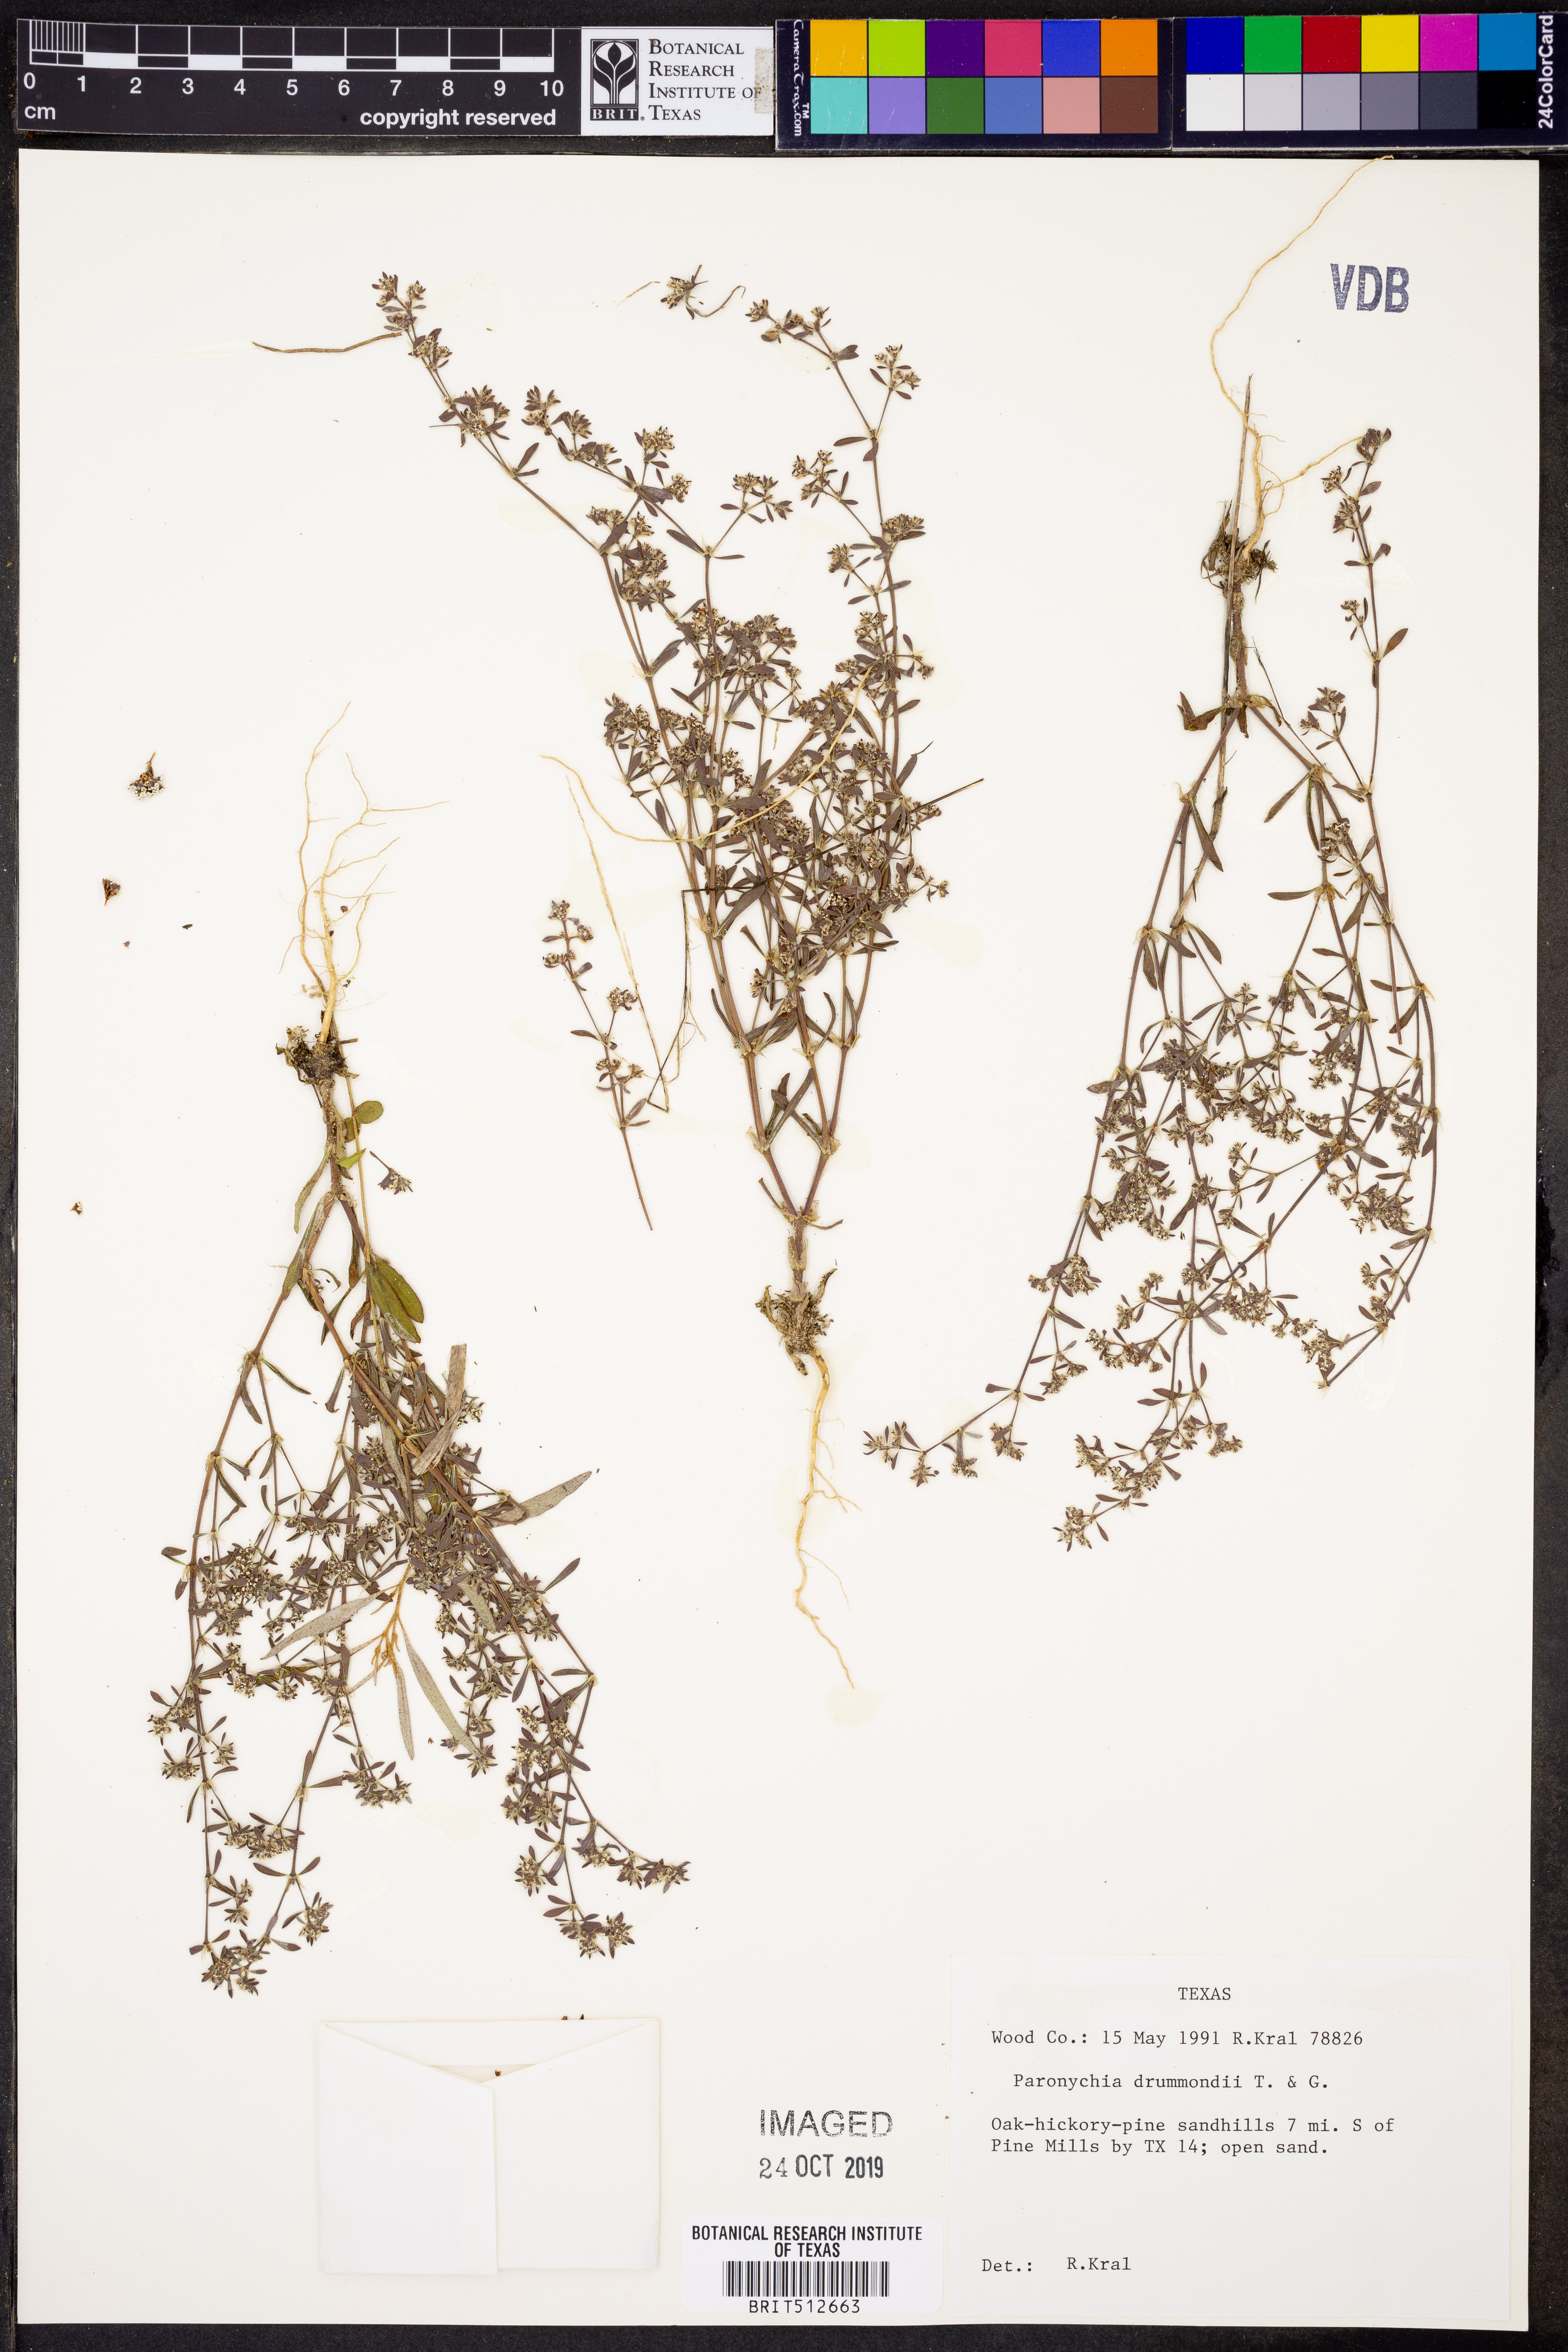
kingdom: Plantae
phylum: Tracheophyta
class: Magnoliopsida
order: Caryophyllales
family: Caryophyllaceae
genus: Paronychia
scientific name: Paronychia drummondii
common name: Drummond's nailwort
